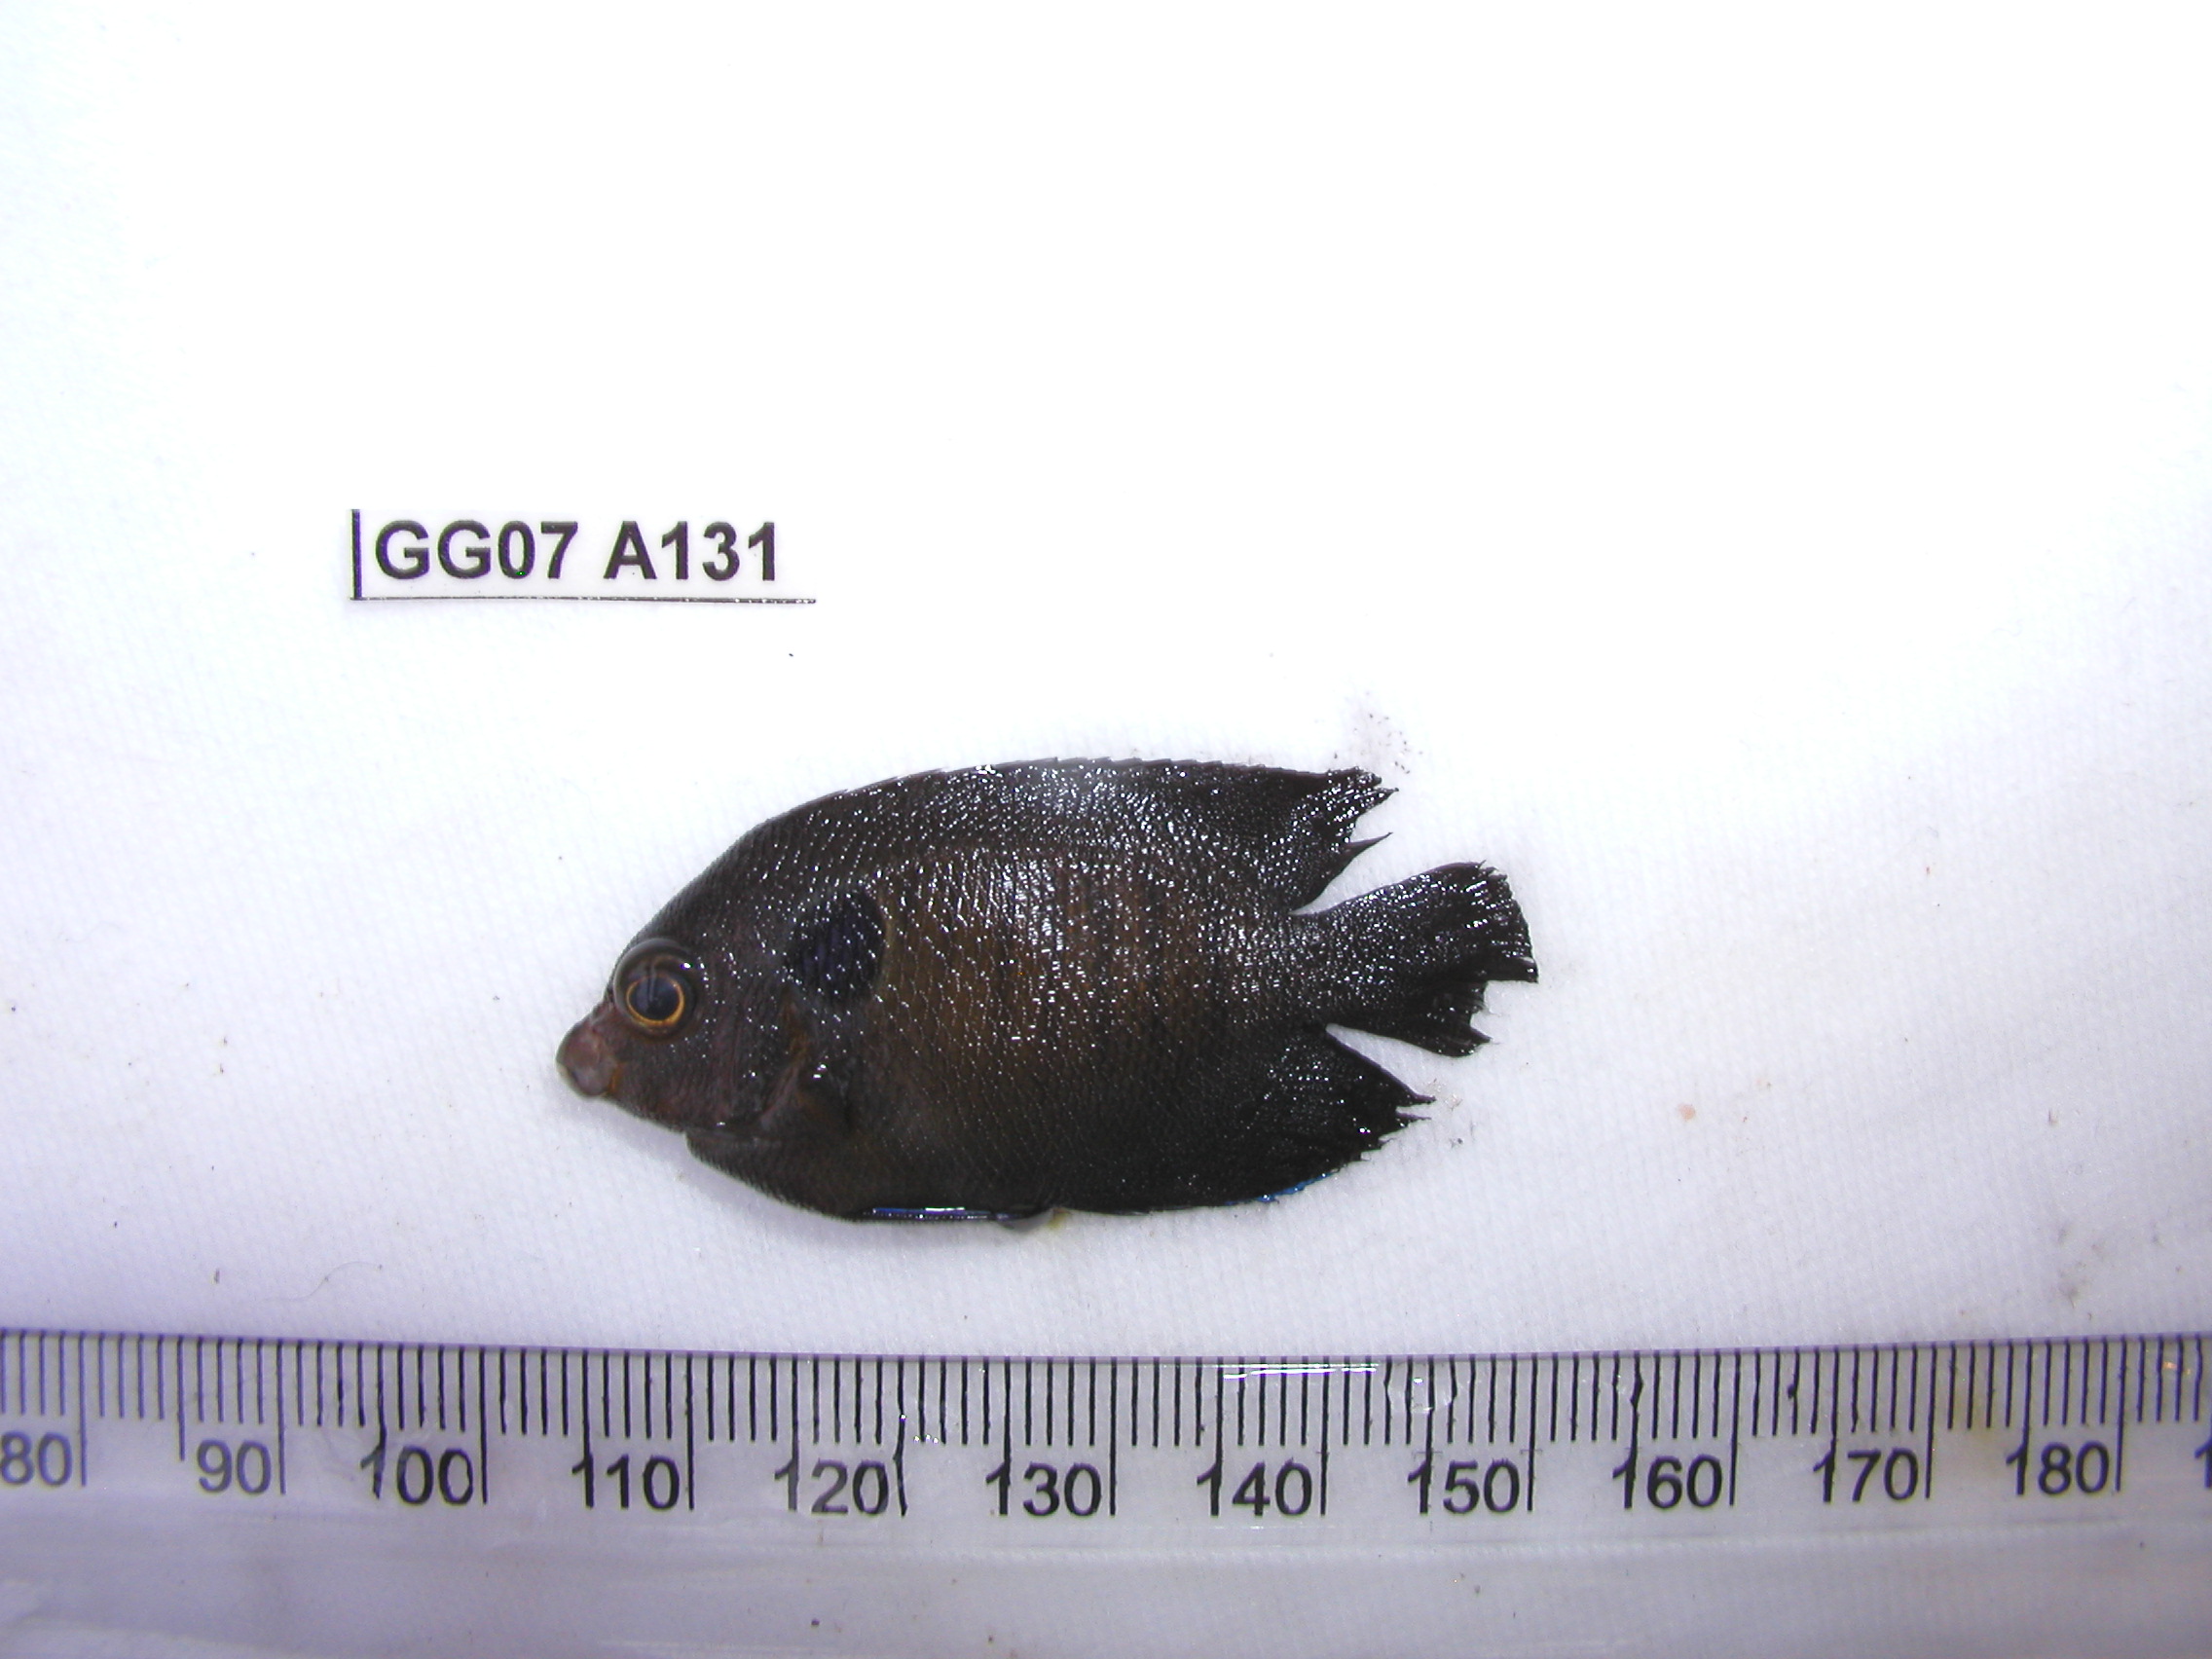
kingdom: Animalia
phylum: Chordata
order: Perciformes
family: Pomacanthidae
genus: Centropyge
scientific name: Centropyge multispinis
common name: Many-spined angelfish
